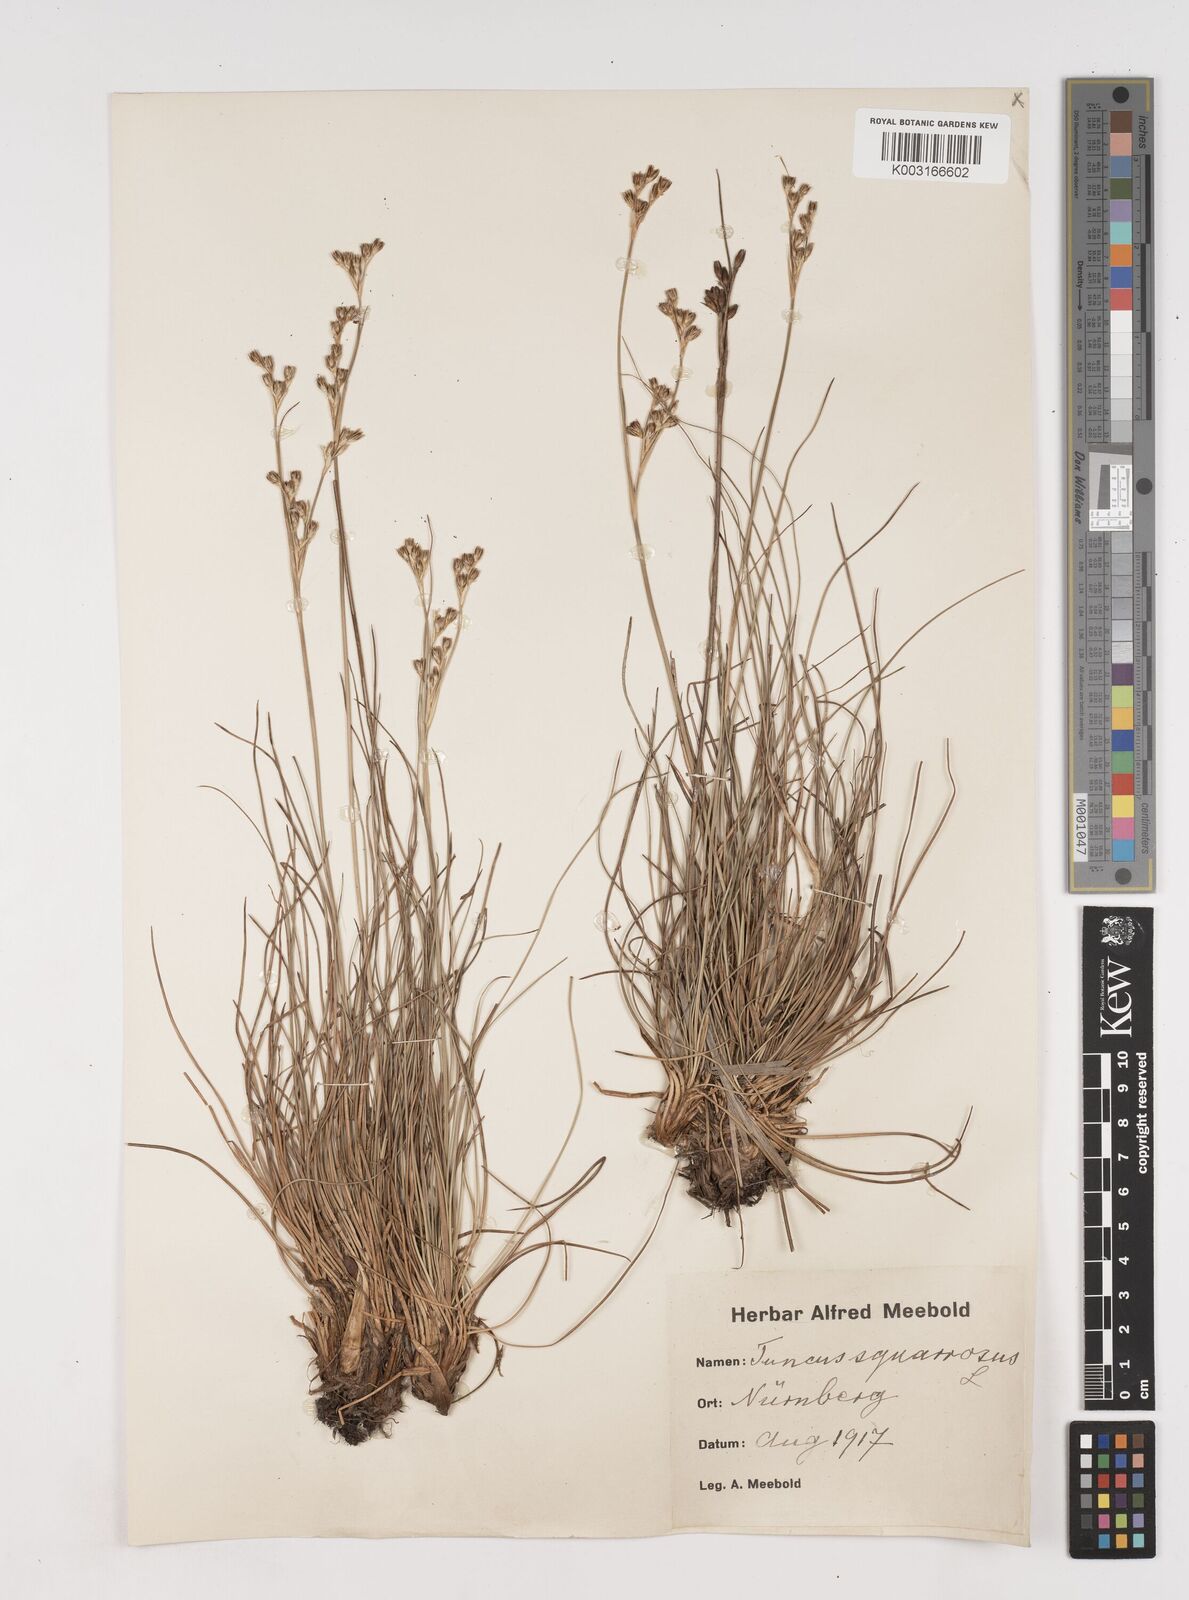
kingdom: Plantae
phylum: Tracheophyta
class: Liliopsida
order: Poales
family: Juncaceae
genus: Juncus
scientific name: Juncus squarrosus
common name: Heath rush
